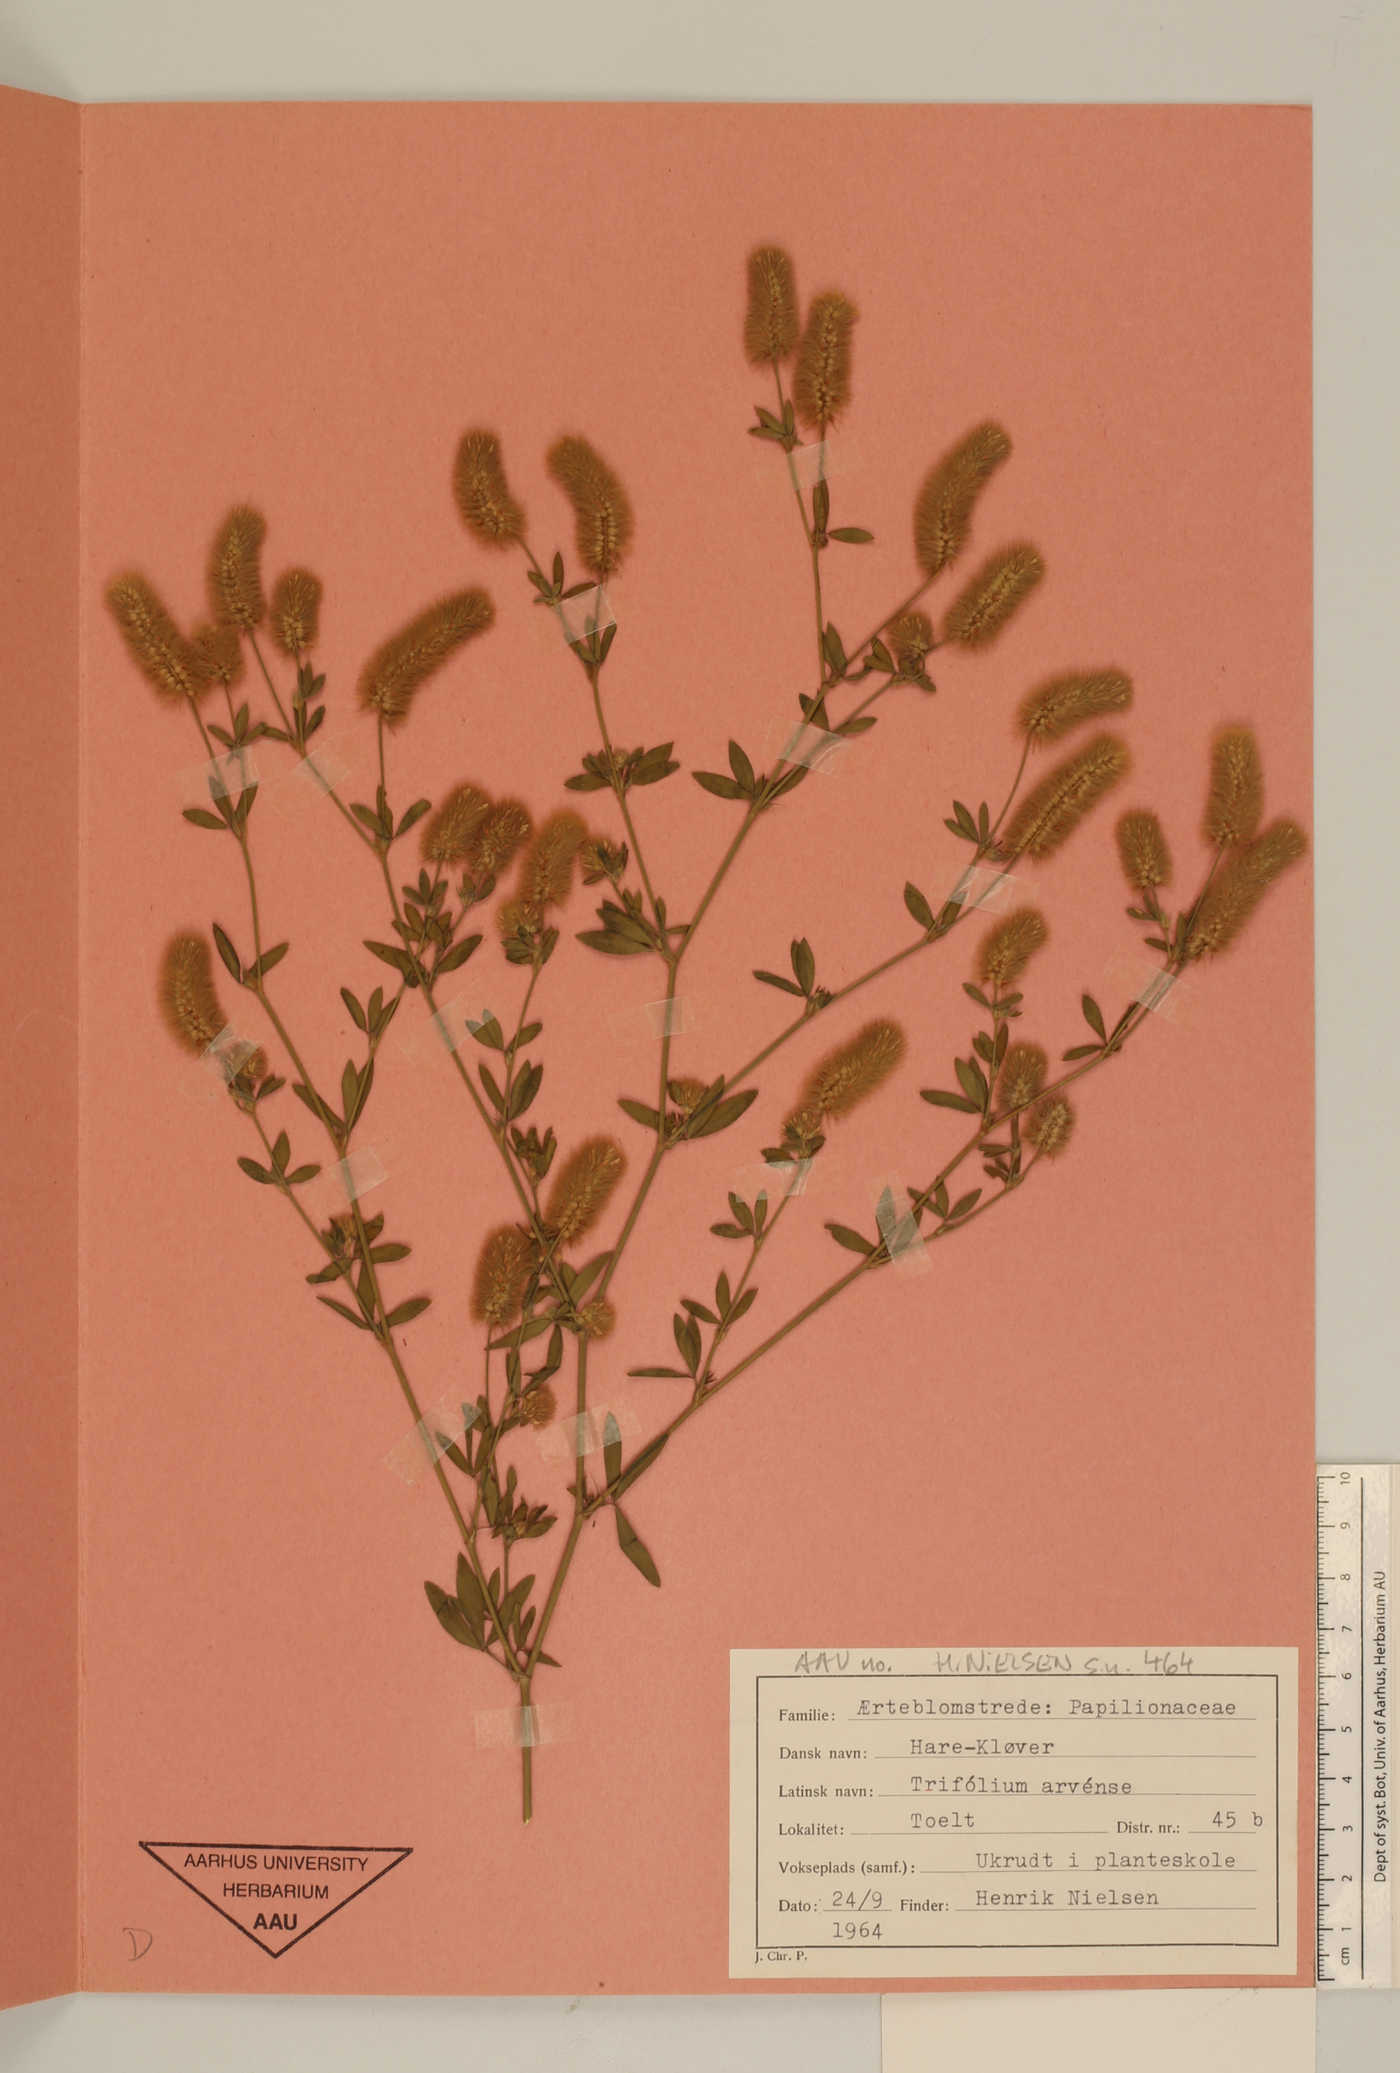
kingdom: Plantae
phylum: Tracheophyta
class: Magnoliopsida
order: Fabales
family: Fabaceae
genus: Trifolium
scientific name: Trifolium arvense
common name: Hare's-foot clover
